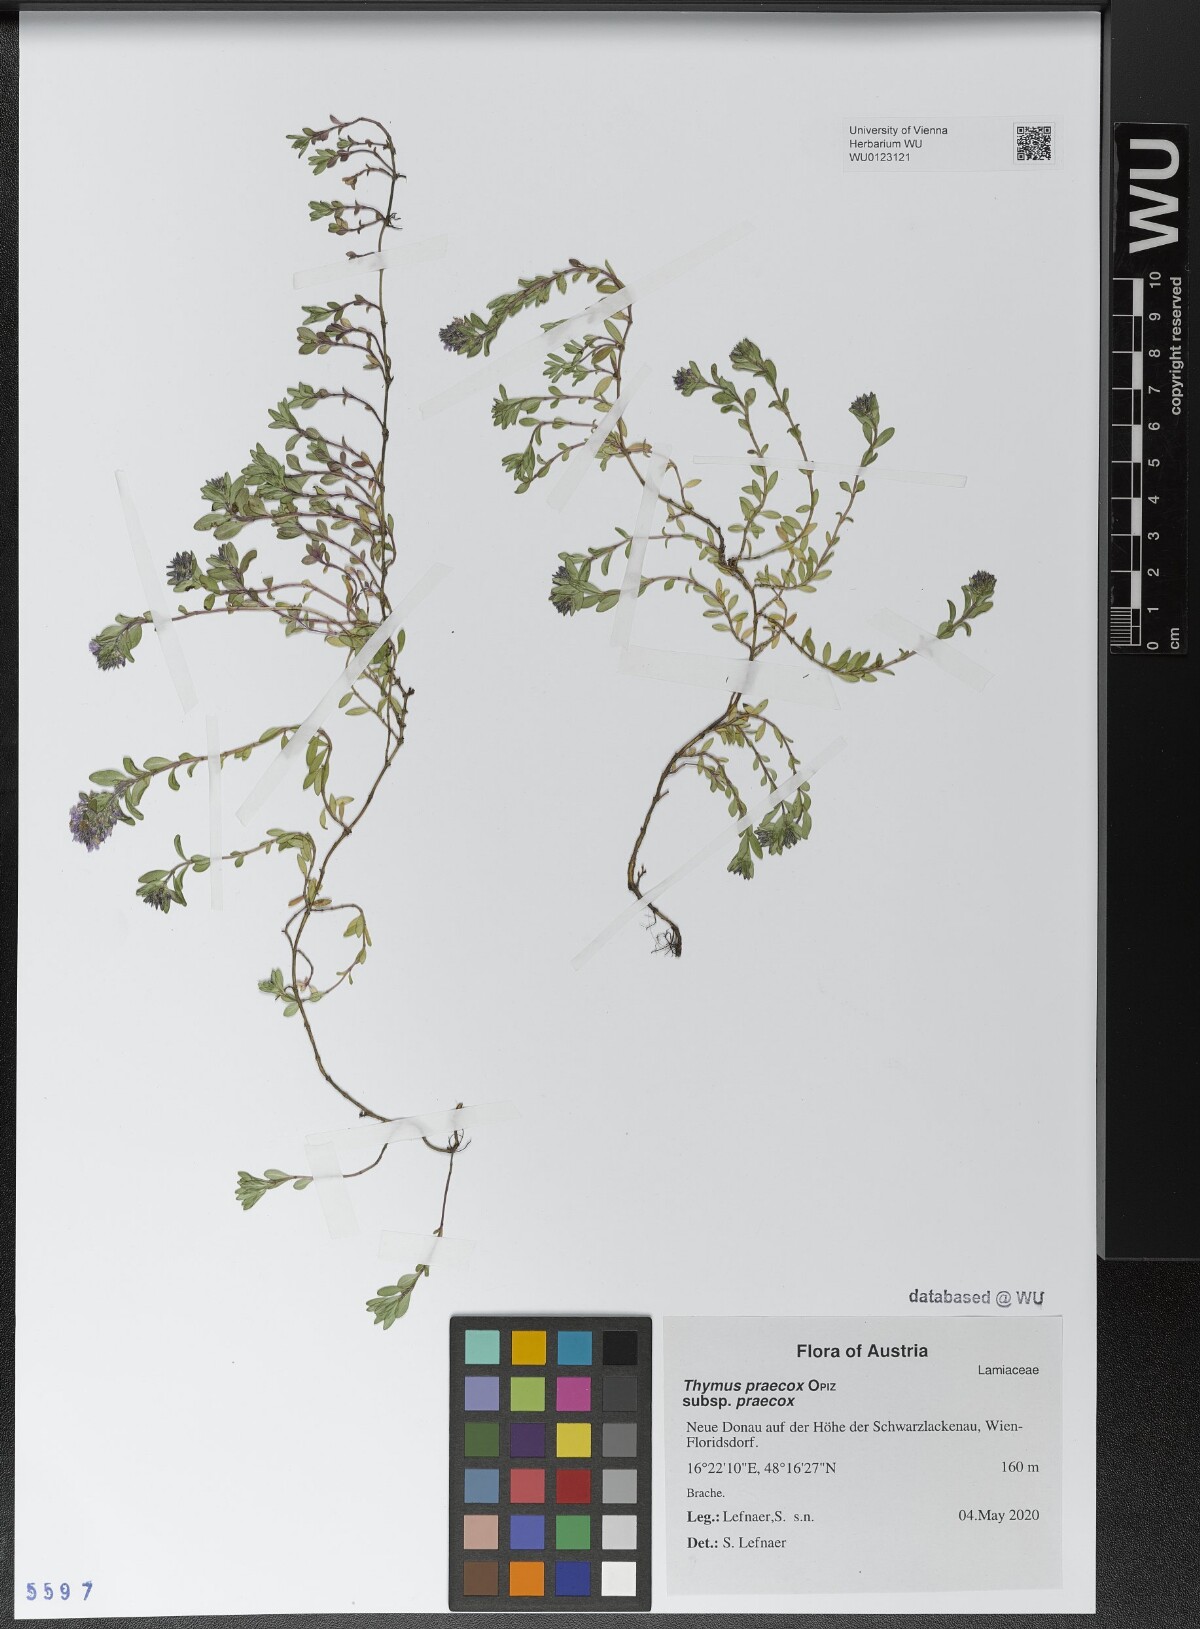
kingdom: Plantae
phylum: Tracheophyta
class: Magnoliopsida
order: Lamiales
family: Lamiaceae
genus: Thymus
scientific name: Thymus praecox
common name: Wild thyme
